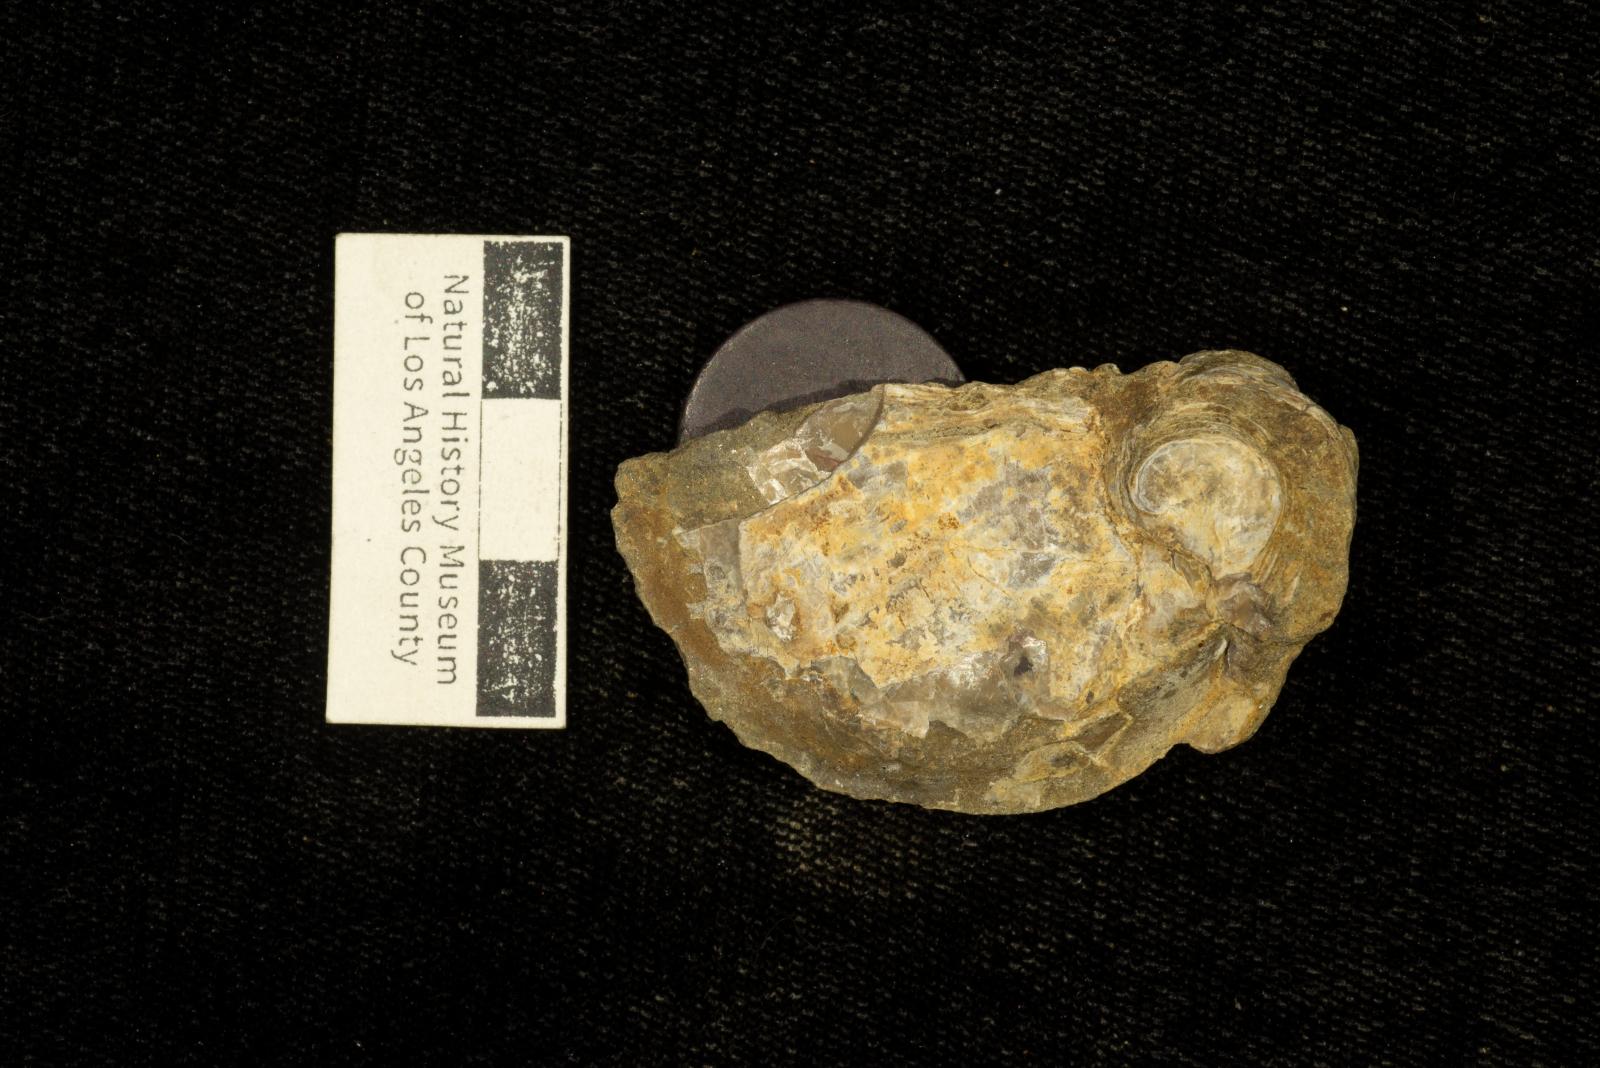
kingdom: Animalia
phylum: Mollusca
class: Bivalvia
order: Ostreida
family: Gryphaeidae
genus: Costagyra
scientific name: Costagyra
